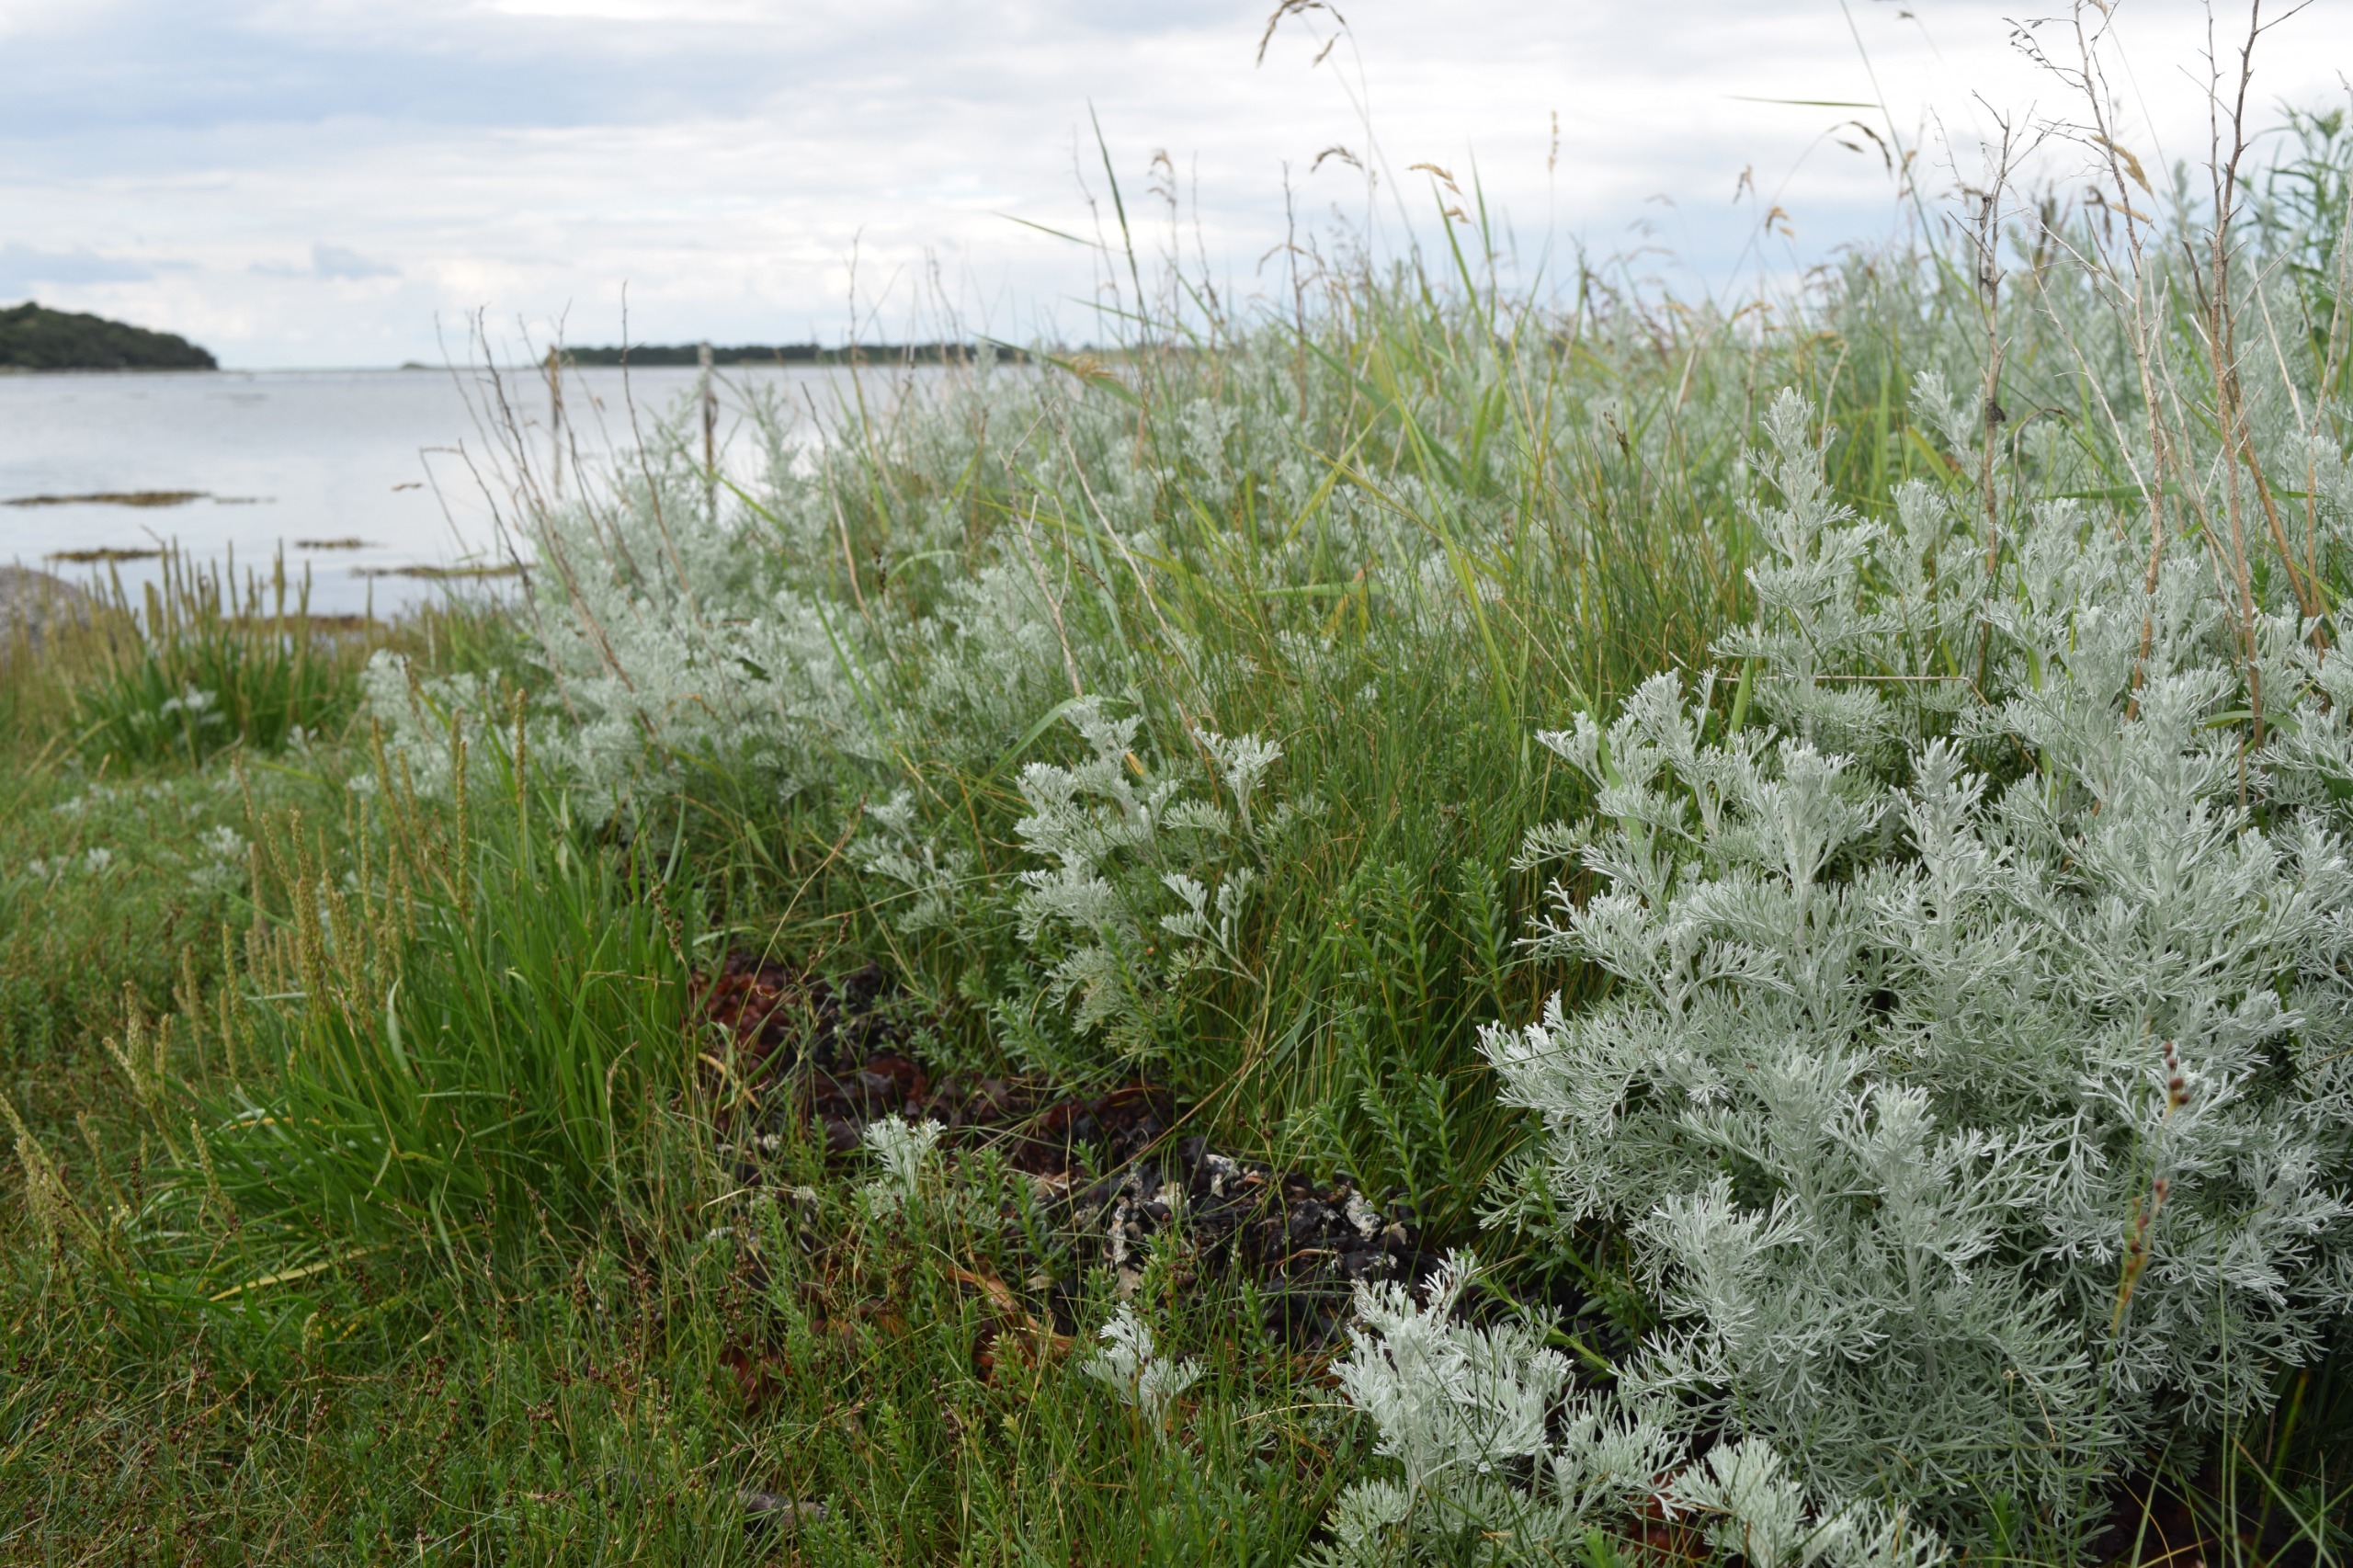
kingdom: Plantae
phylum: Tracheophyta
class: Magnoliopsida
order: Asterales
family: Asteraceae
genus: Artemisia
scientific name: Artemisia maritima
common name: Strandmalurt
